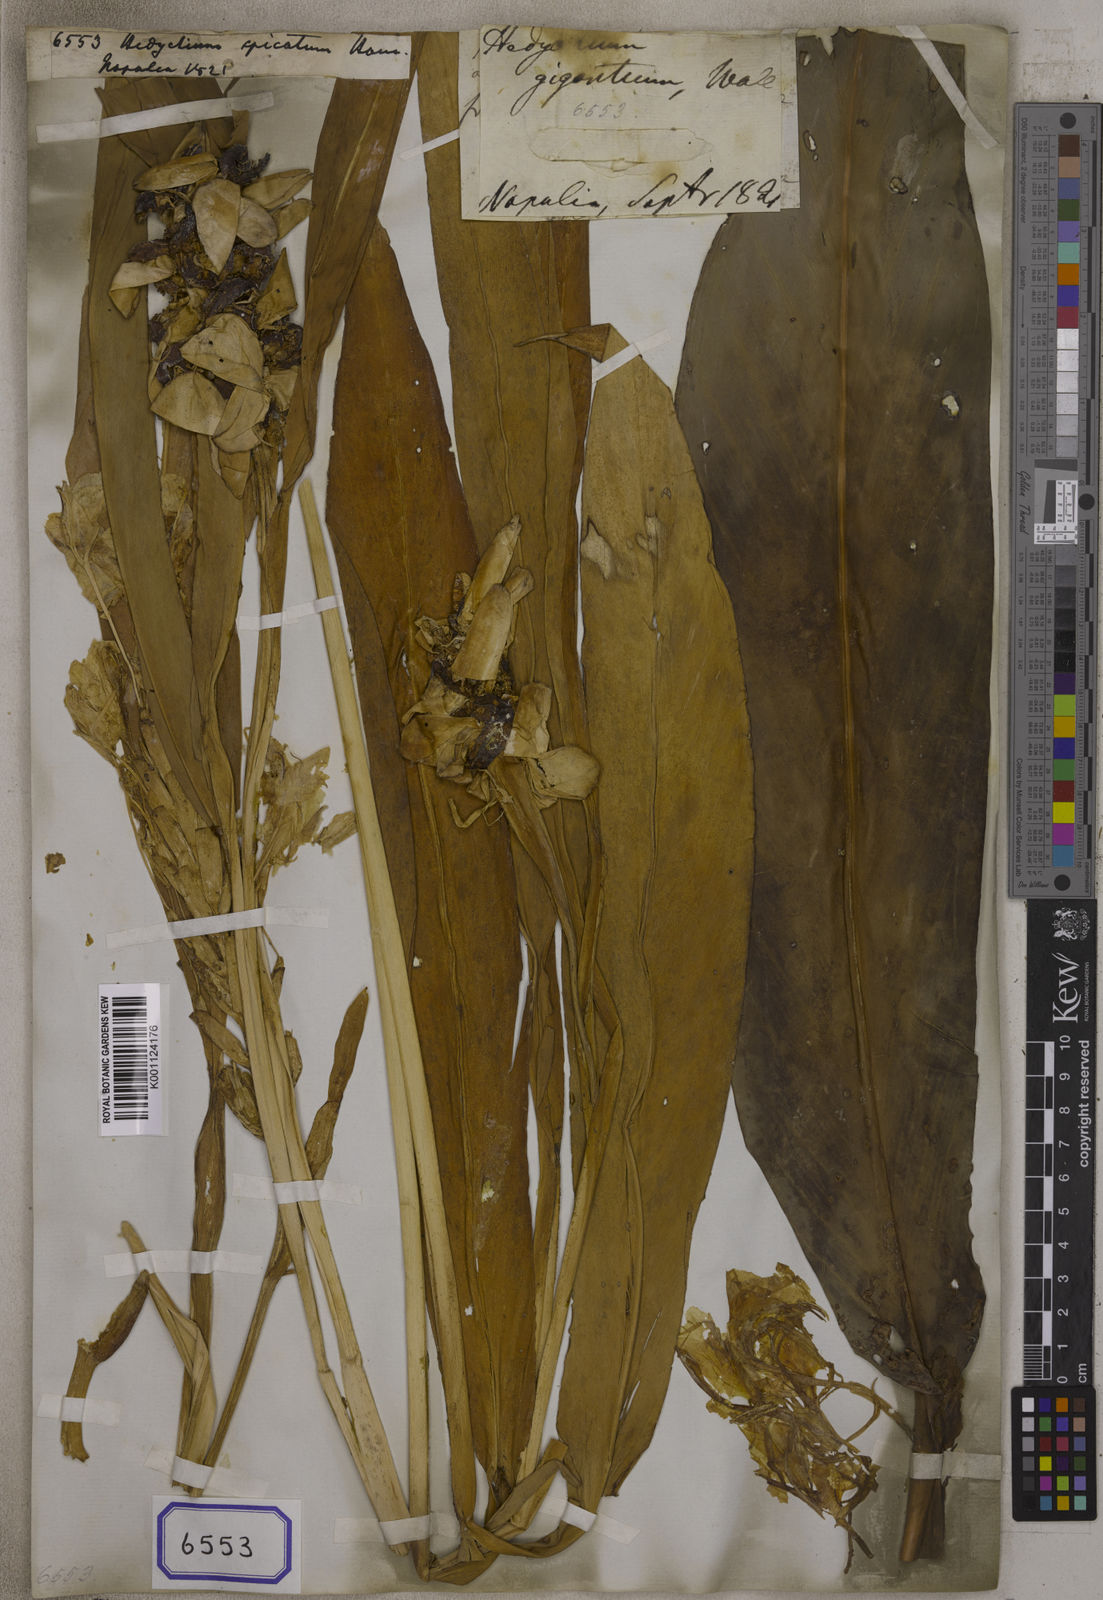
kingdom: Plantae
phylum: Tracheophyta
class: Liliopsida
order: Zingiberales
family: Zingiberaceae
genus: Hedychium
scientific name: Hedychium spicatum
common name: Spiked ginger-lily
